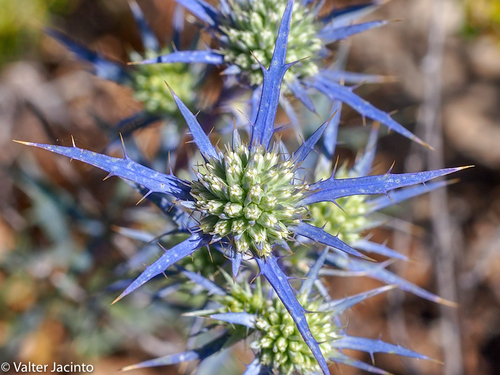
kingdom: Plantae
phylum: Tracheophyta
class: Magnoliopsida
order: Apiales
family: Apiaceae
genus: Eryngium
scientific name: Eryngium dilatatum
